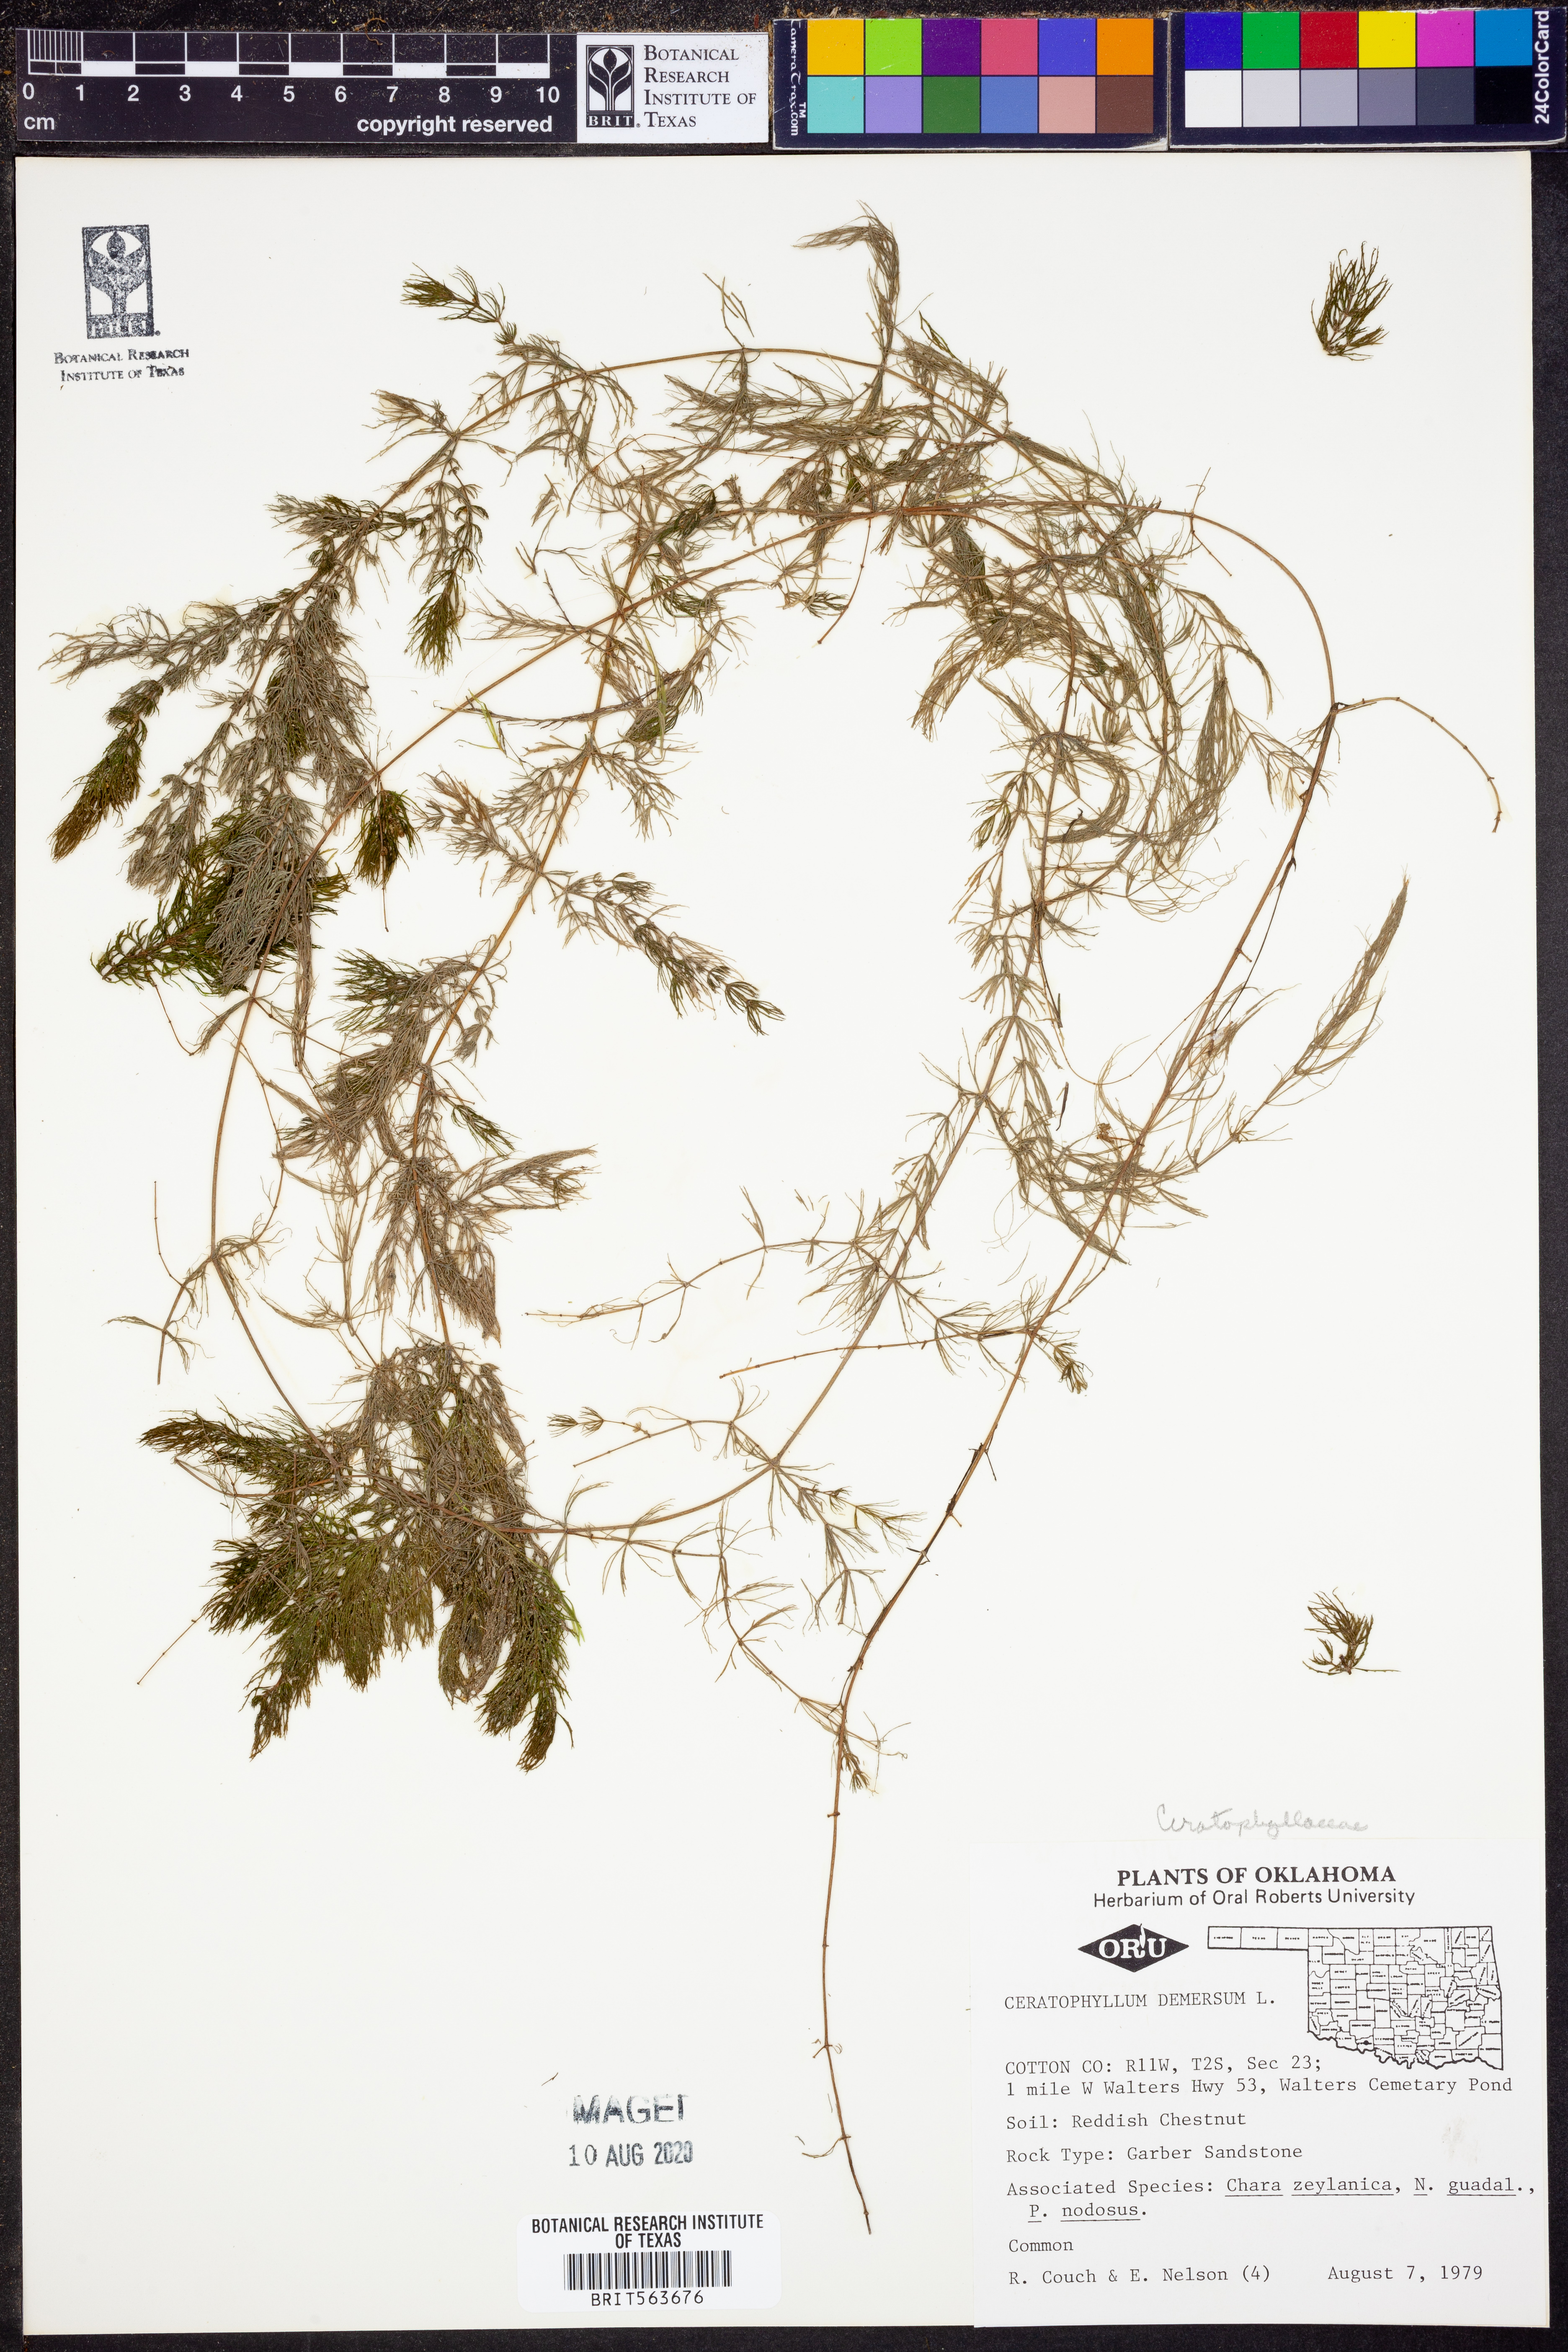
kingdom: Plantae
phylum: Tracheophyta
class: Magnoliopsida
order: Ceratophyllales
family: Ceratophyllaceae
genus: Ceratophyllum
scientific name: Ceratophyllum demersum
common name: Rigid hornwort
